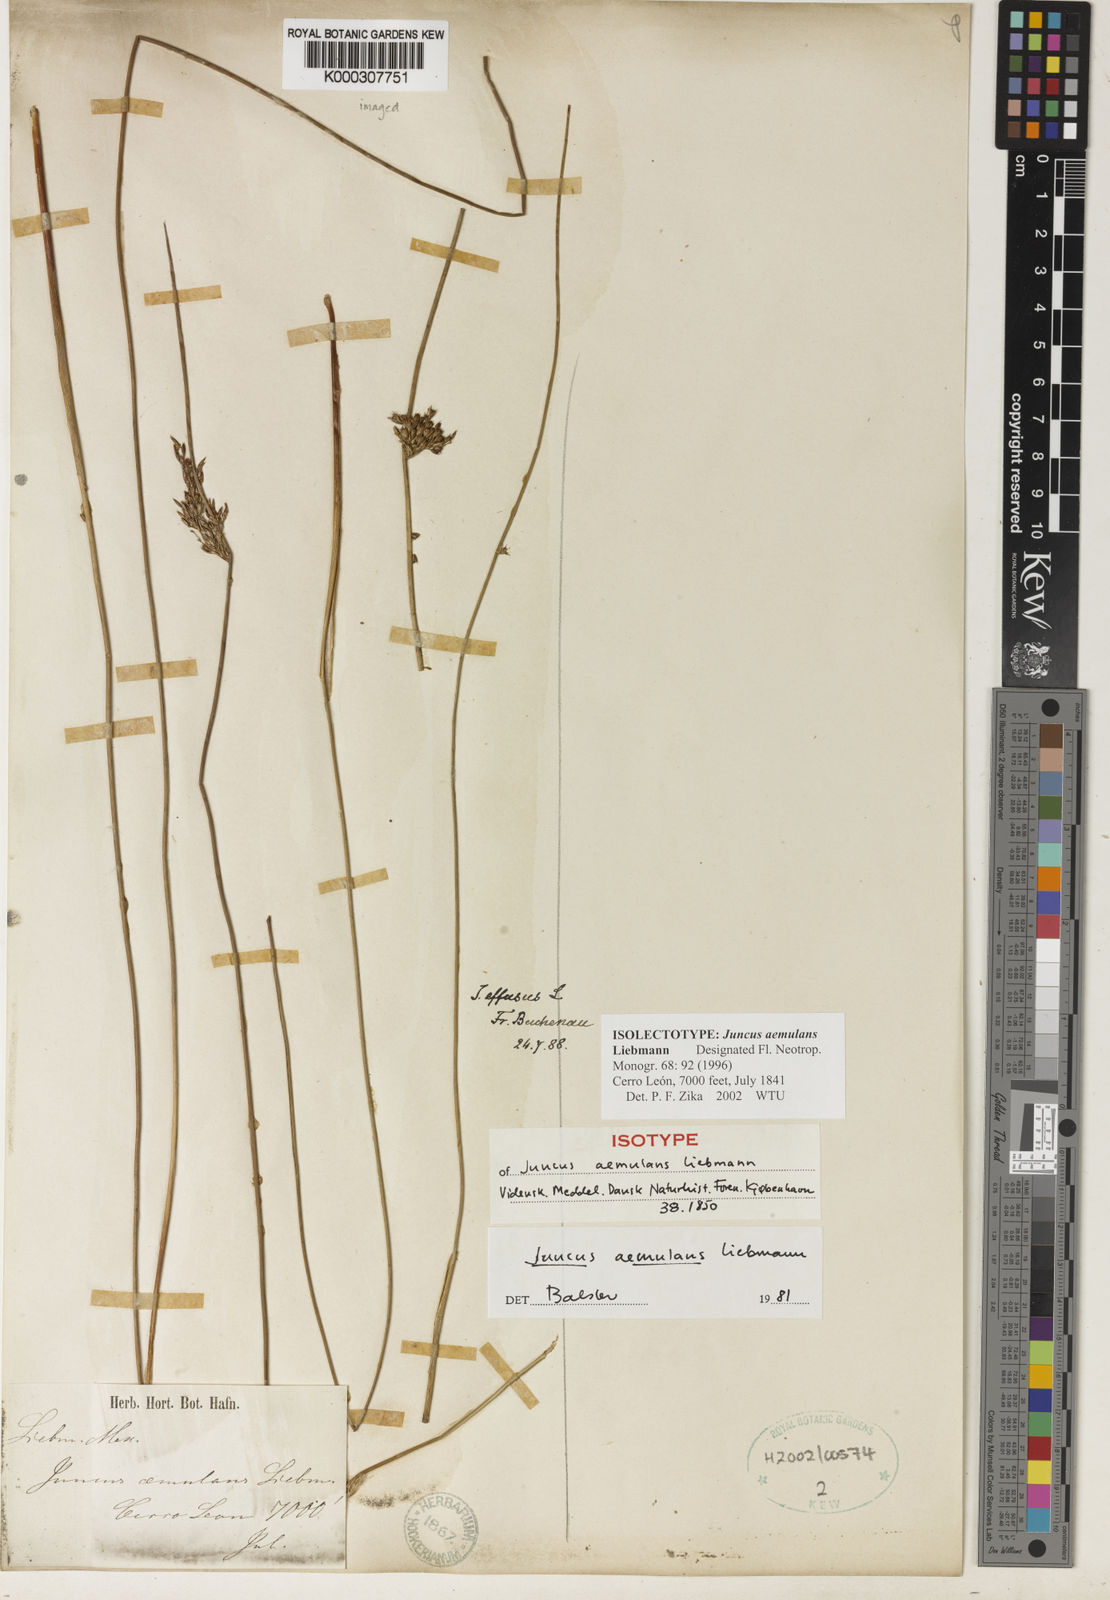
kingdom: Plantae
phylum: Tracheophyta
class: Liliopsida
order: Poales
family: Juncaceae
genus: Juncus
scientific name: Juncus aemulans
